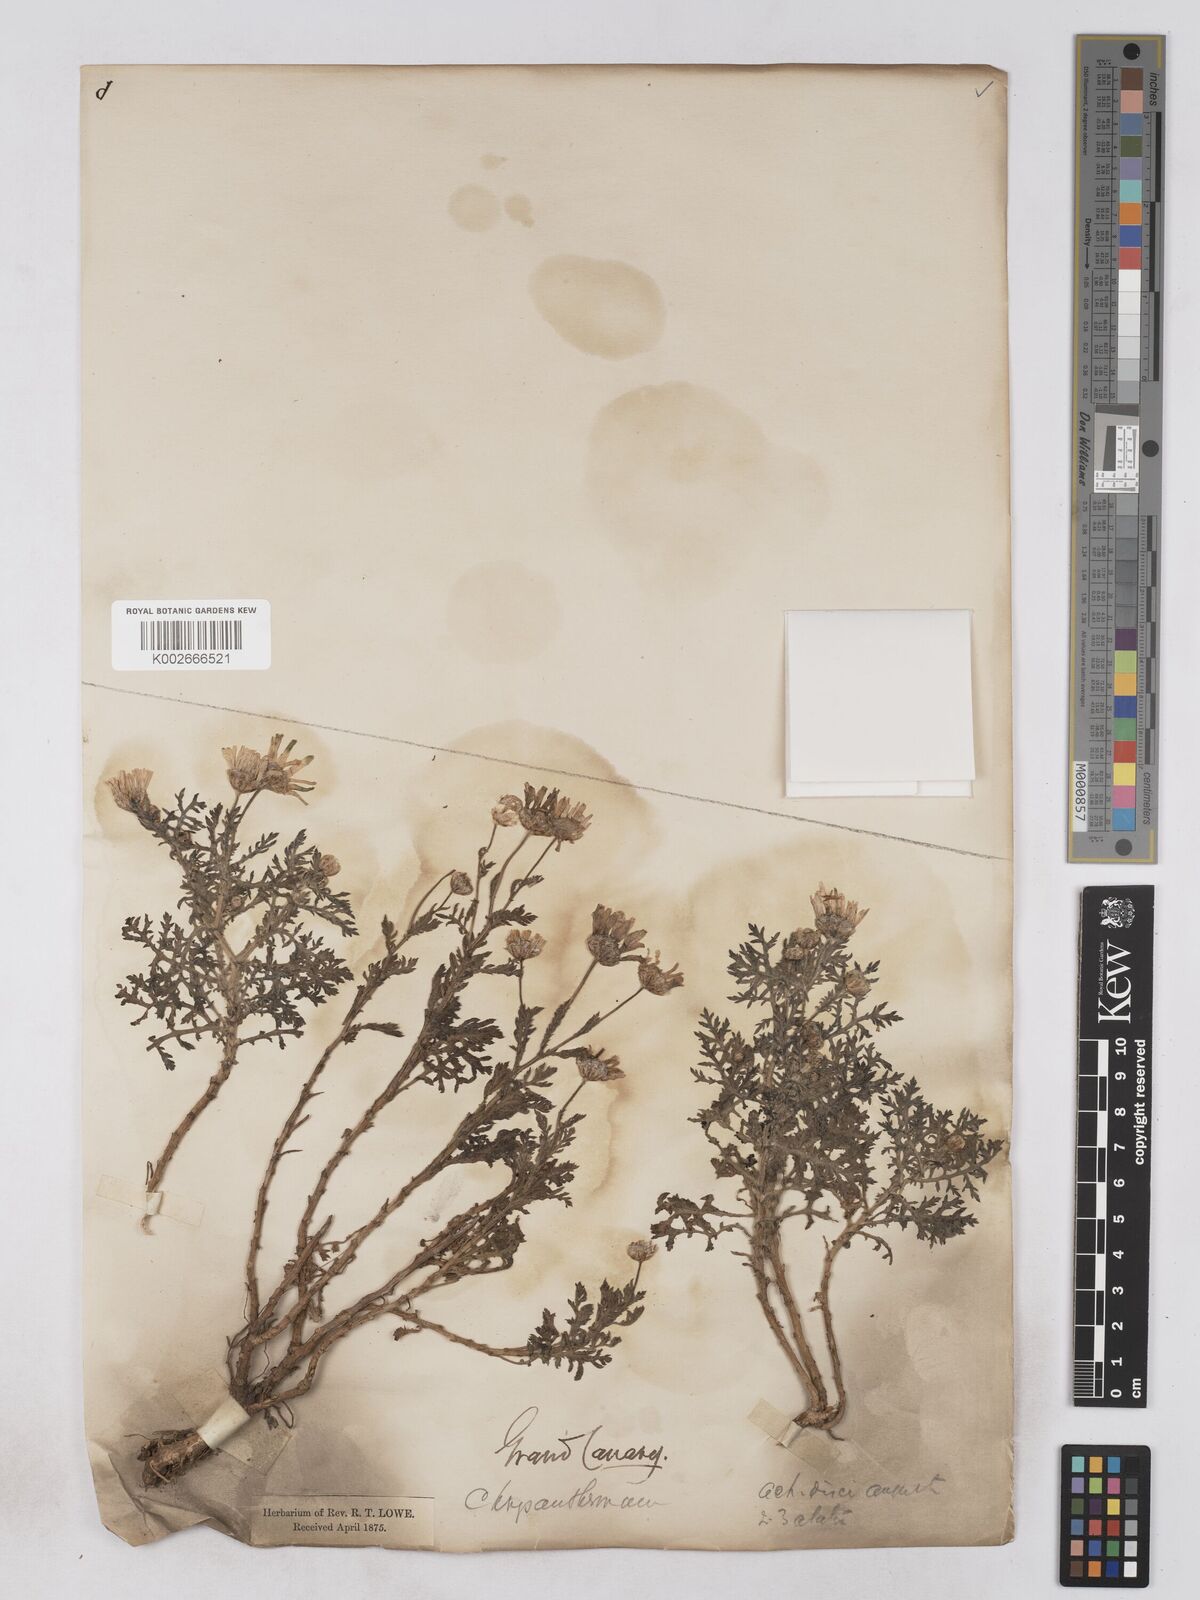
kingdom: Plantae
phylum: Tracheophyta
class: Magnoliopsida
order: Asterales
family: Asteraceae
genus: Argyranthemum
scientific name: Argyranthemum adauctum
